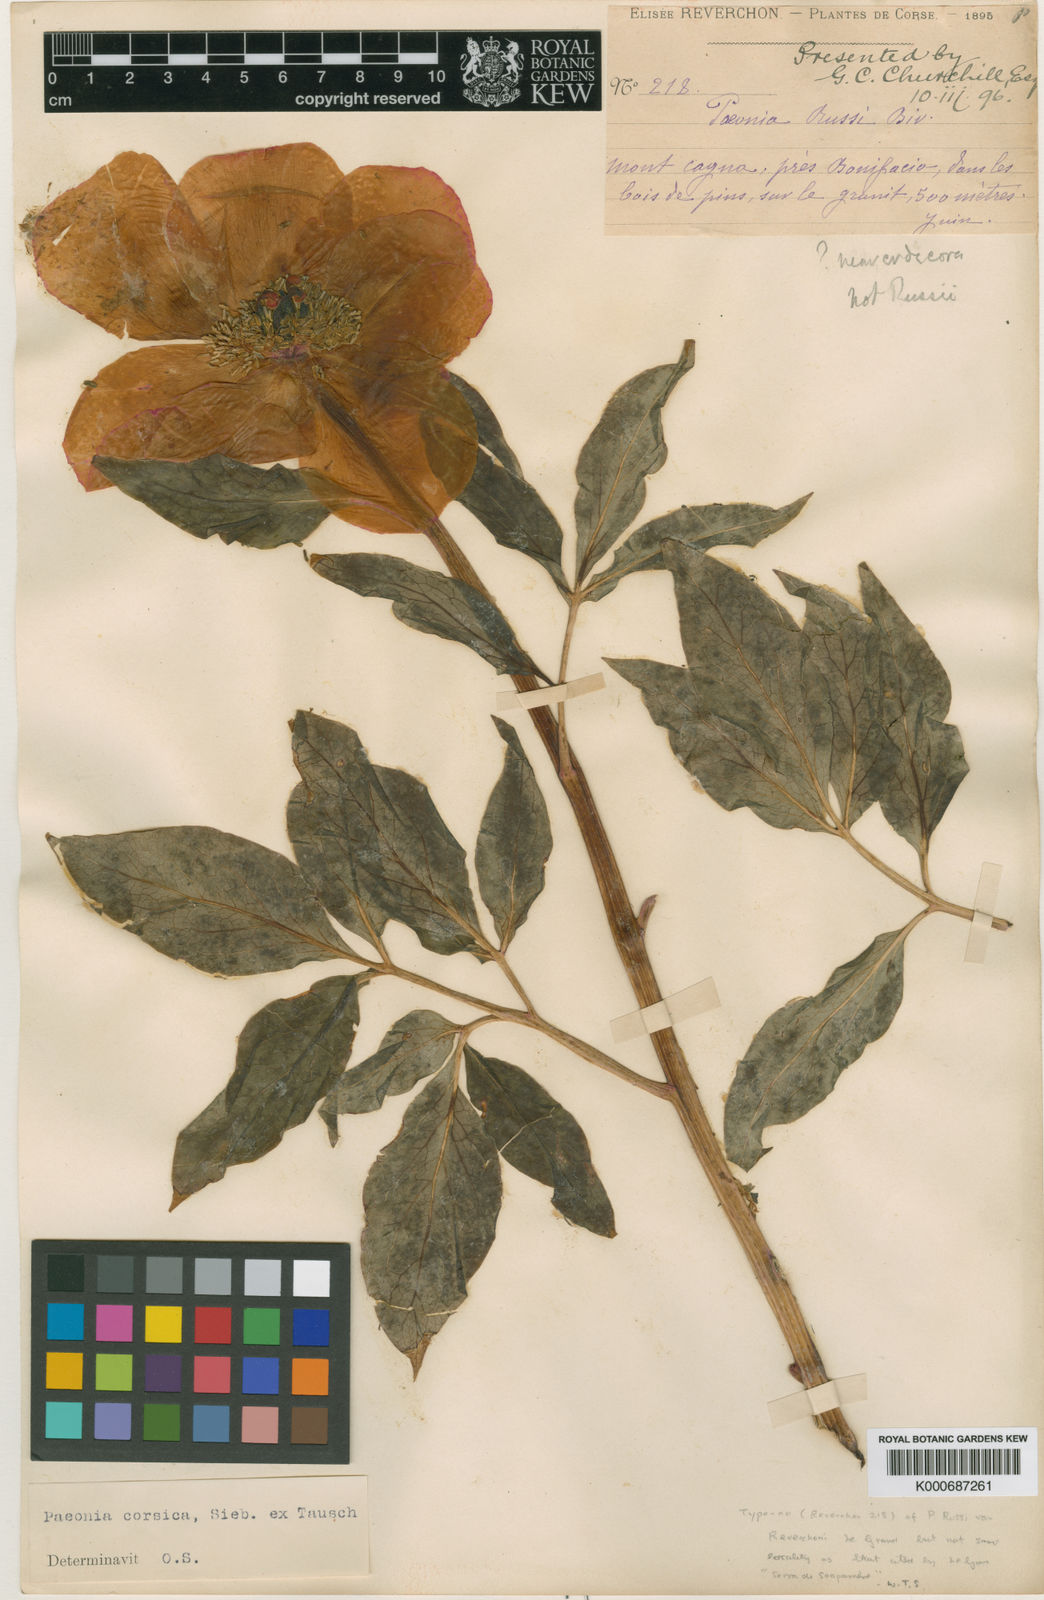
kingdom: Plantae
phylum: Tracheophyta
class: Magnoliopsida
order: Saxifragales
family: Paeoniaceae
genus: Paeonia
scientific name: Paeonia mascula
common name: Peony
